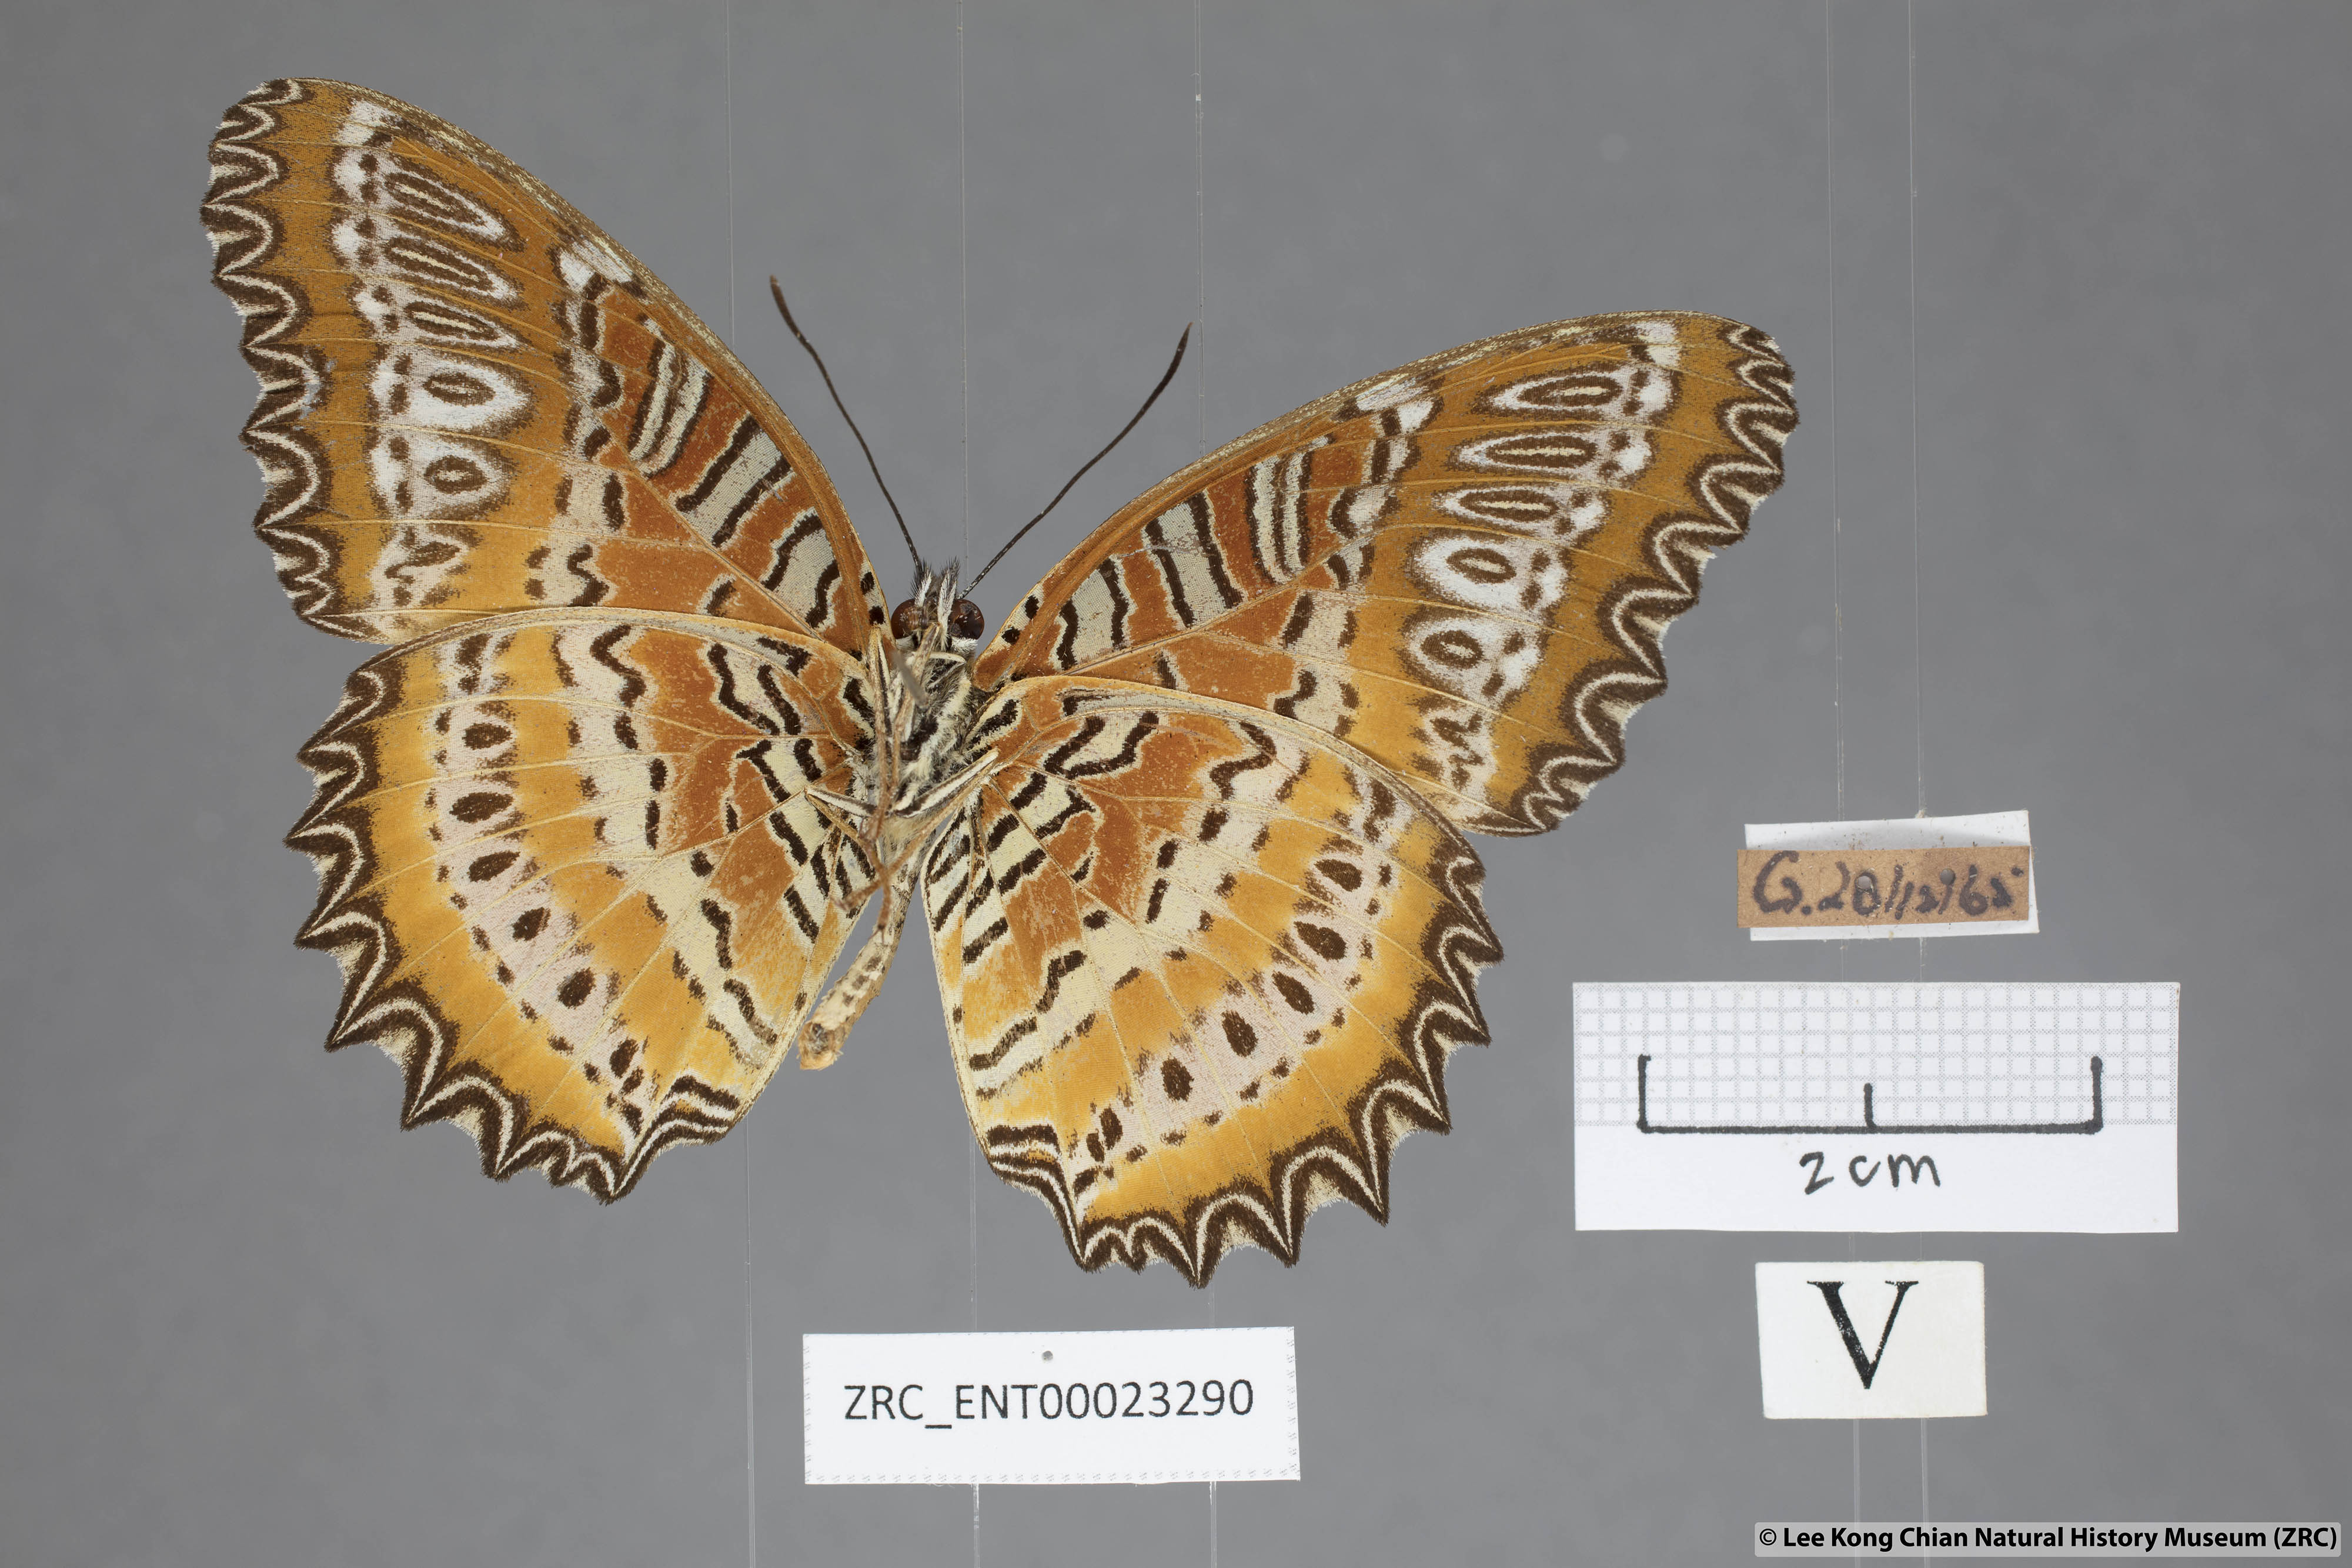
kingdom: Animalia
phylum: Arthropoda
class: Insecta
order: Lepidoptera
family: Nymphalidae
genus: Cethosia
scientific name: Cethosia biblis
